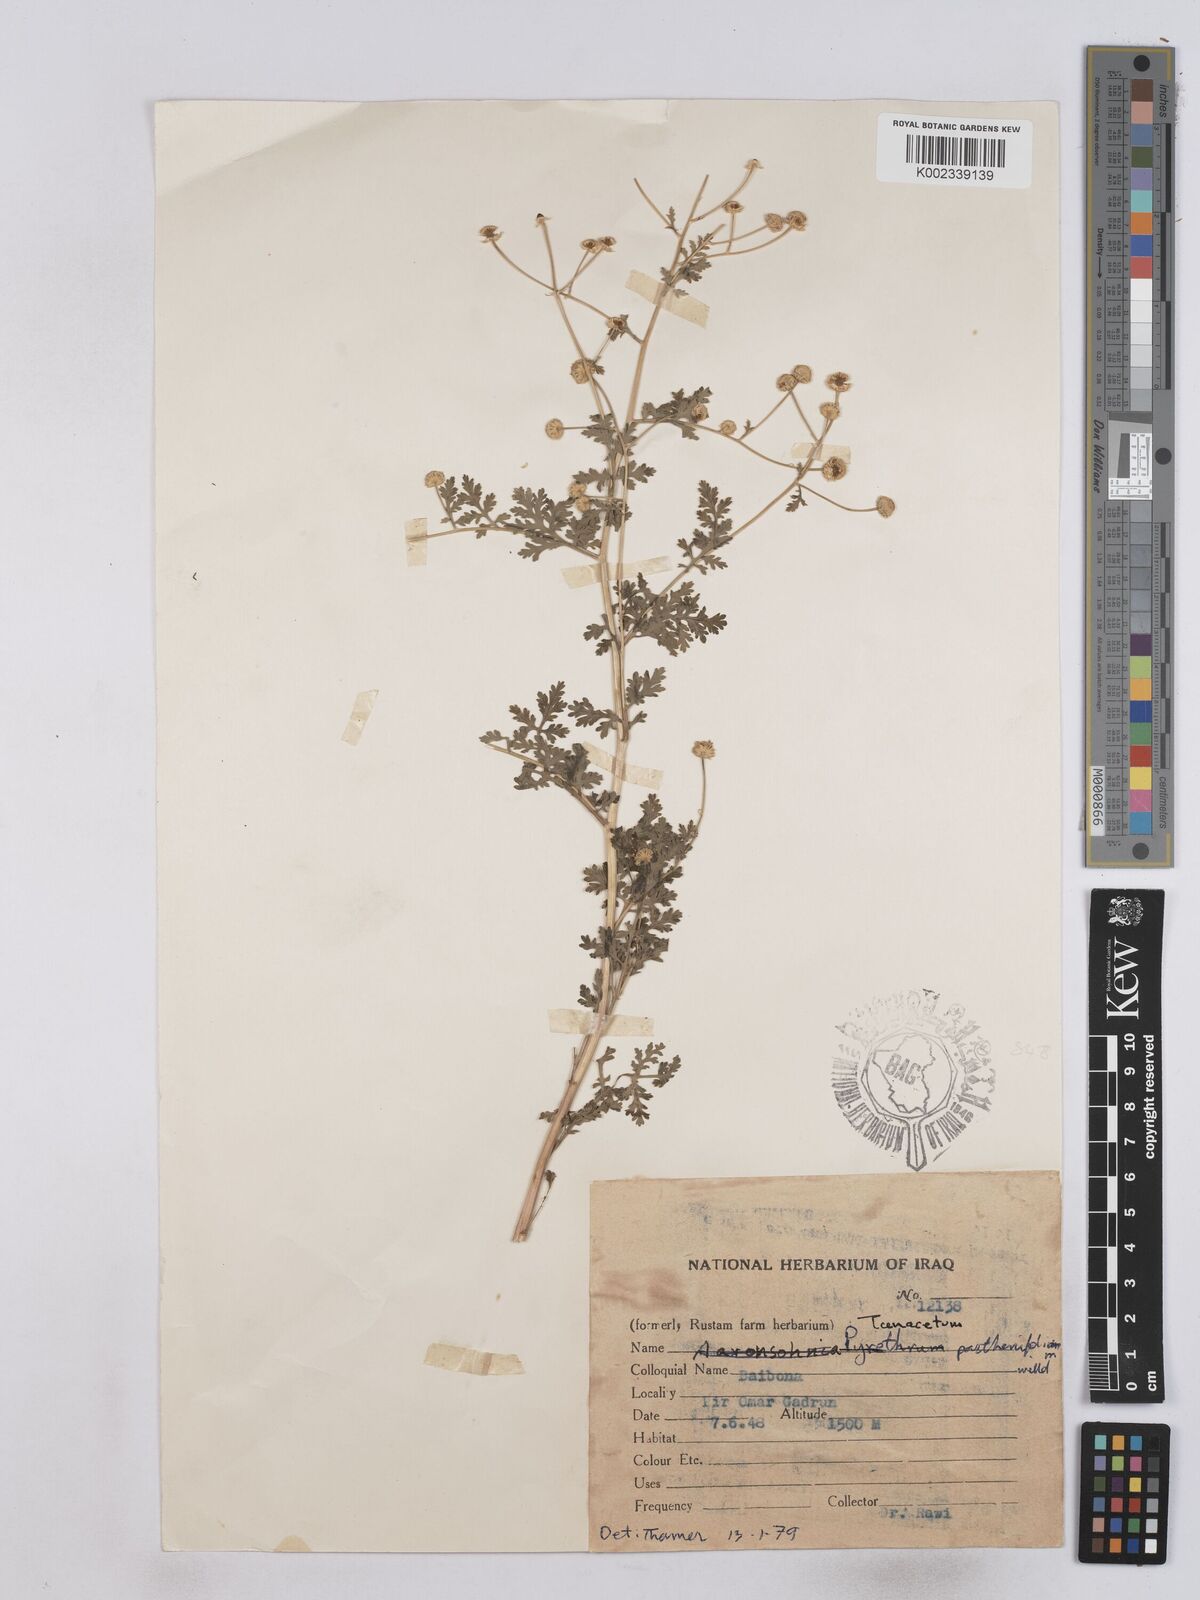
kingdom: Plantae
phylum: Tracheophyta
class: Magnoliopsida
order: Asterales
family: Asteraceae
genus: Tanacetum
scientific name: Tanacetum partheniifolium
